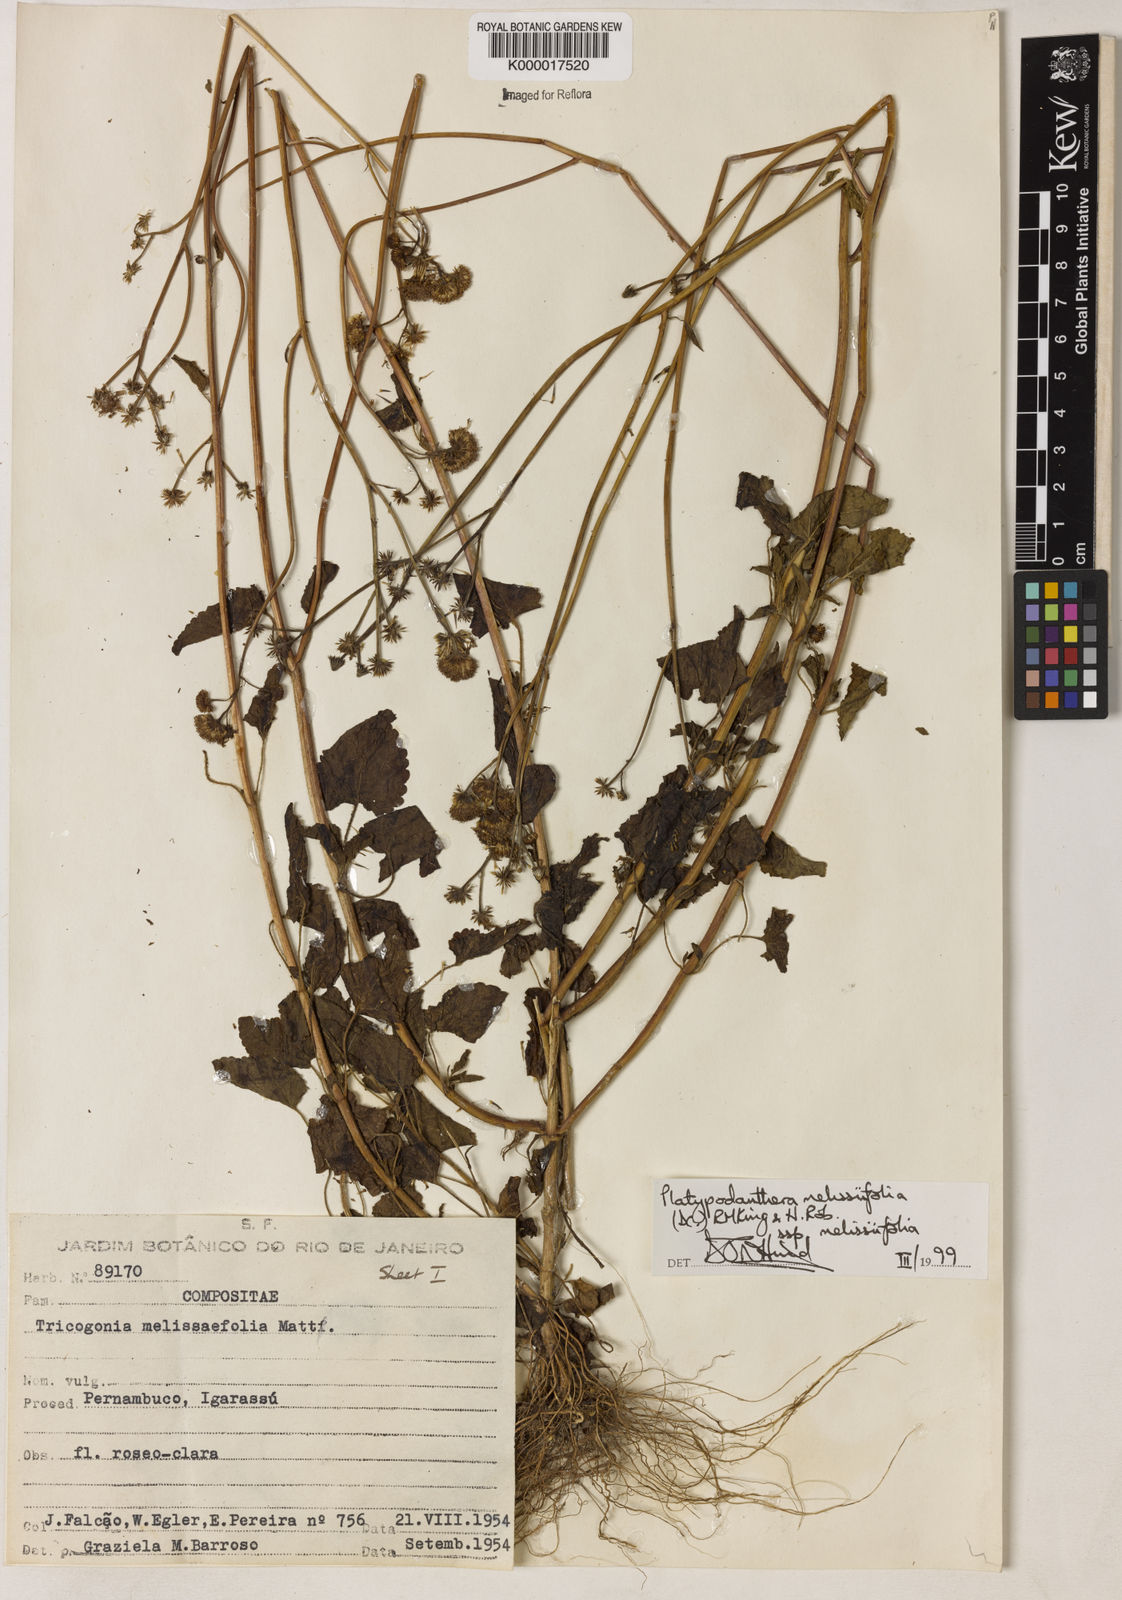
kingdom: Plantae
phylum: Tracheophyta
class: Magnoliopsida
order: Asterales
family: Asteraceae
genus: Platypodanthera
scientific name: Platypodanthera melissifolia
